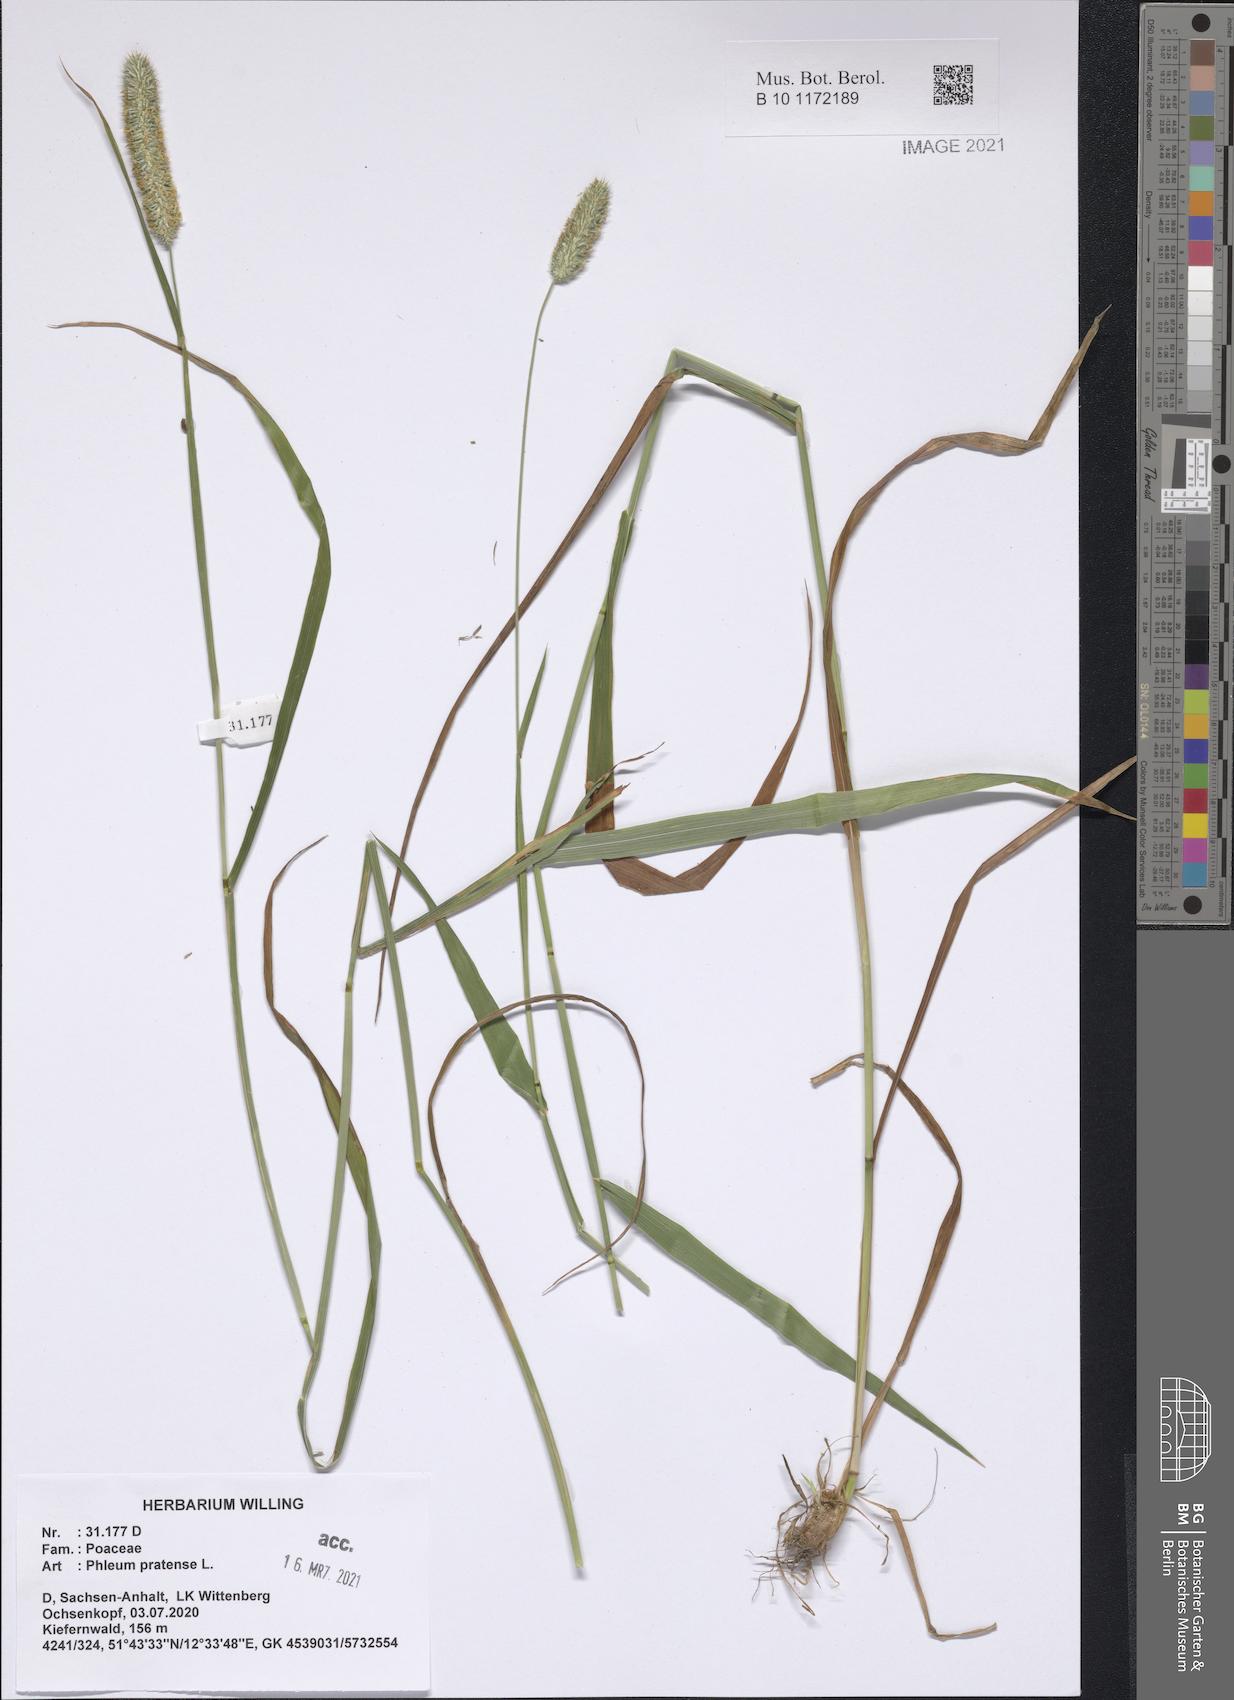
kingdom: Plantae
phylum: Tracheophyta
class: Liliopsida
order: Poales
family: Poaceae
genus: Phleum
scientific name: Phleum pratense
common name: Timothy grass
